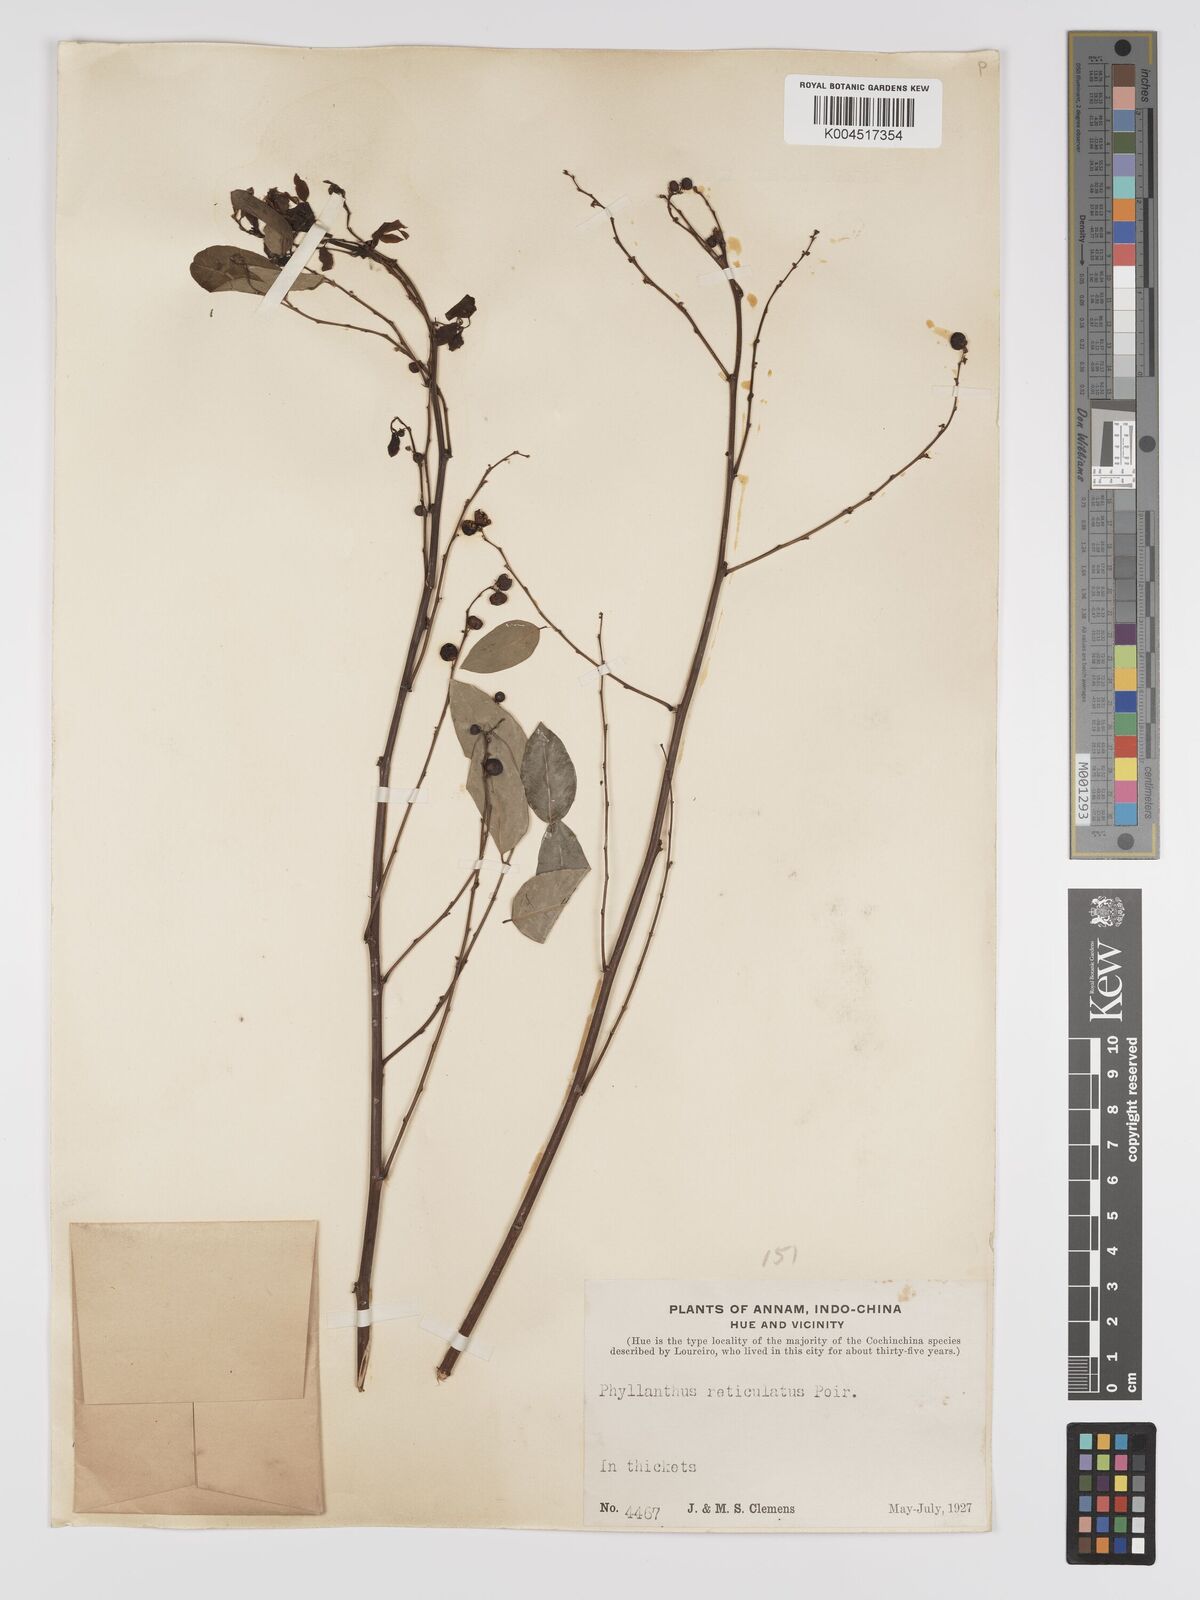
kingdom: Plantae
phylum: Tracheophyta
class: Magnoliopsida
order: Malpighiales
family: Phyllanthaceae
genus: Phyllanthus
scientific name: Phyllanthus reticulatus
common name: Potato bush
